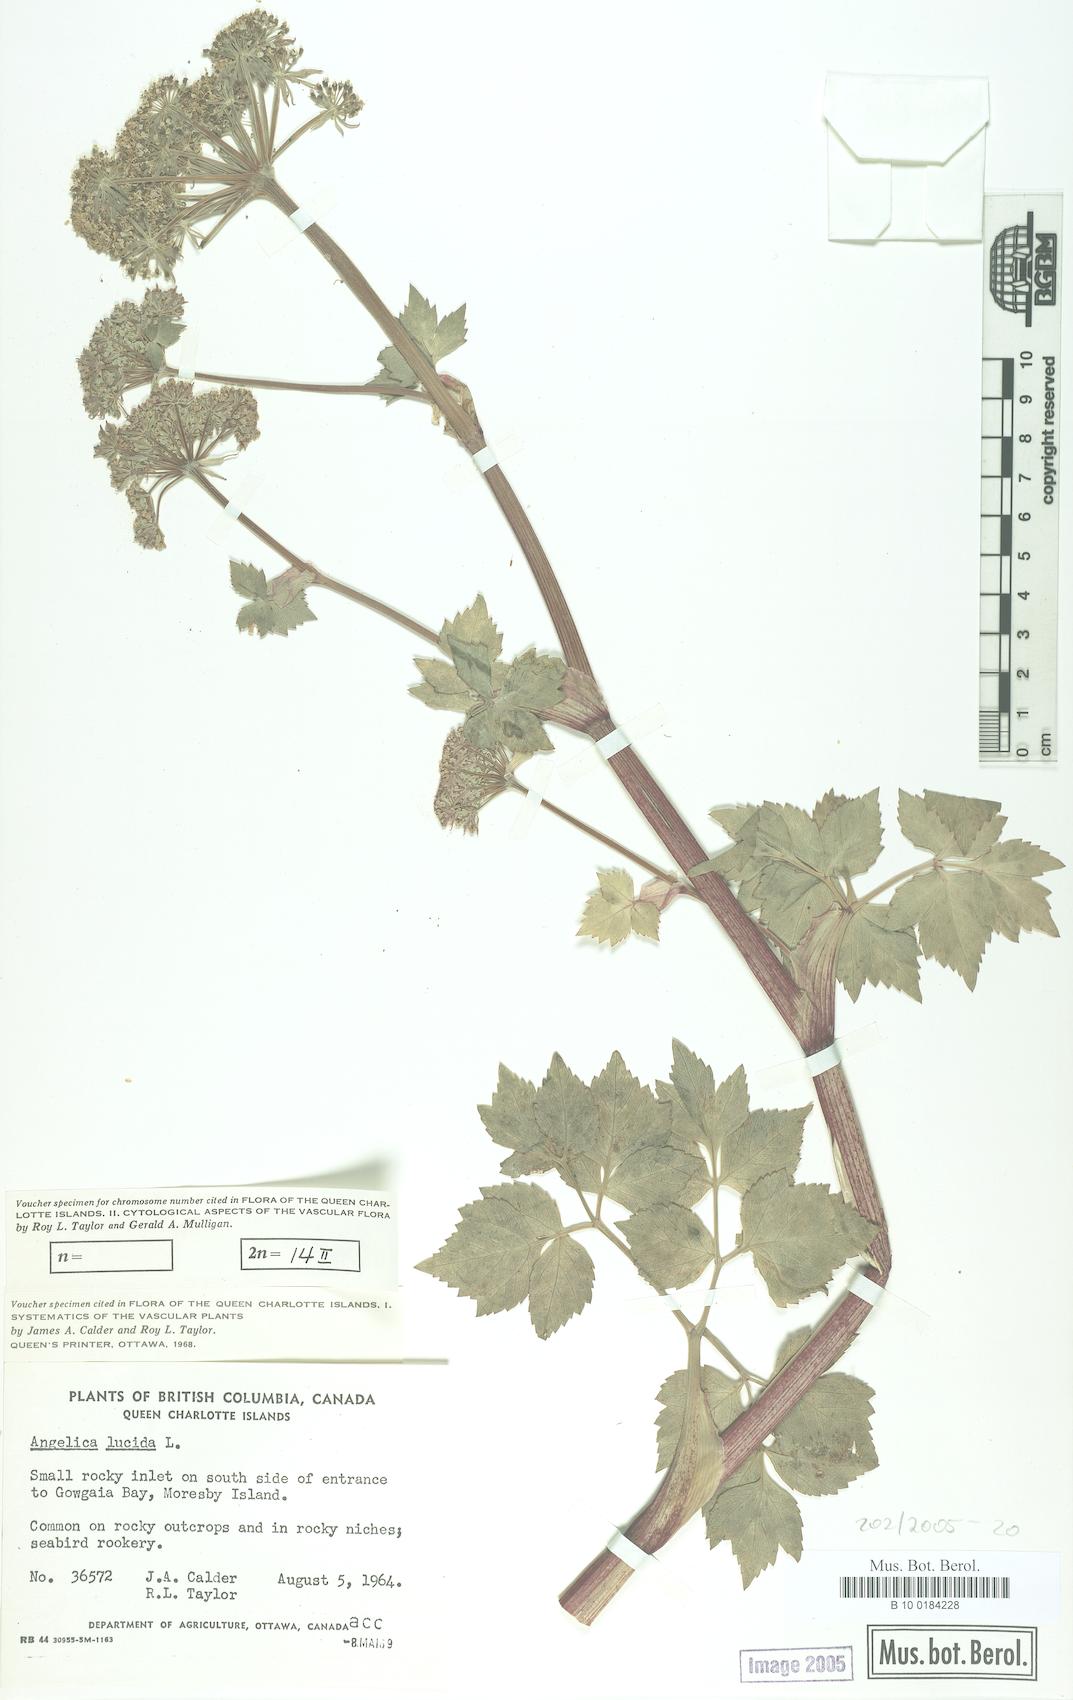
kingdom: Plantae
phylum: Tracheophyta
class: Magnoliopsida
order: Apiales
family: Apiaceae
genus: Angelica
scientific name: Angelica lucida
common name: Seabeach angelica
